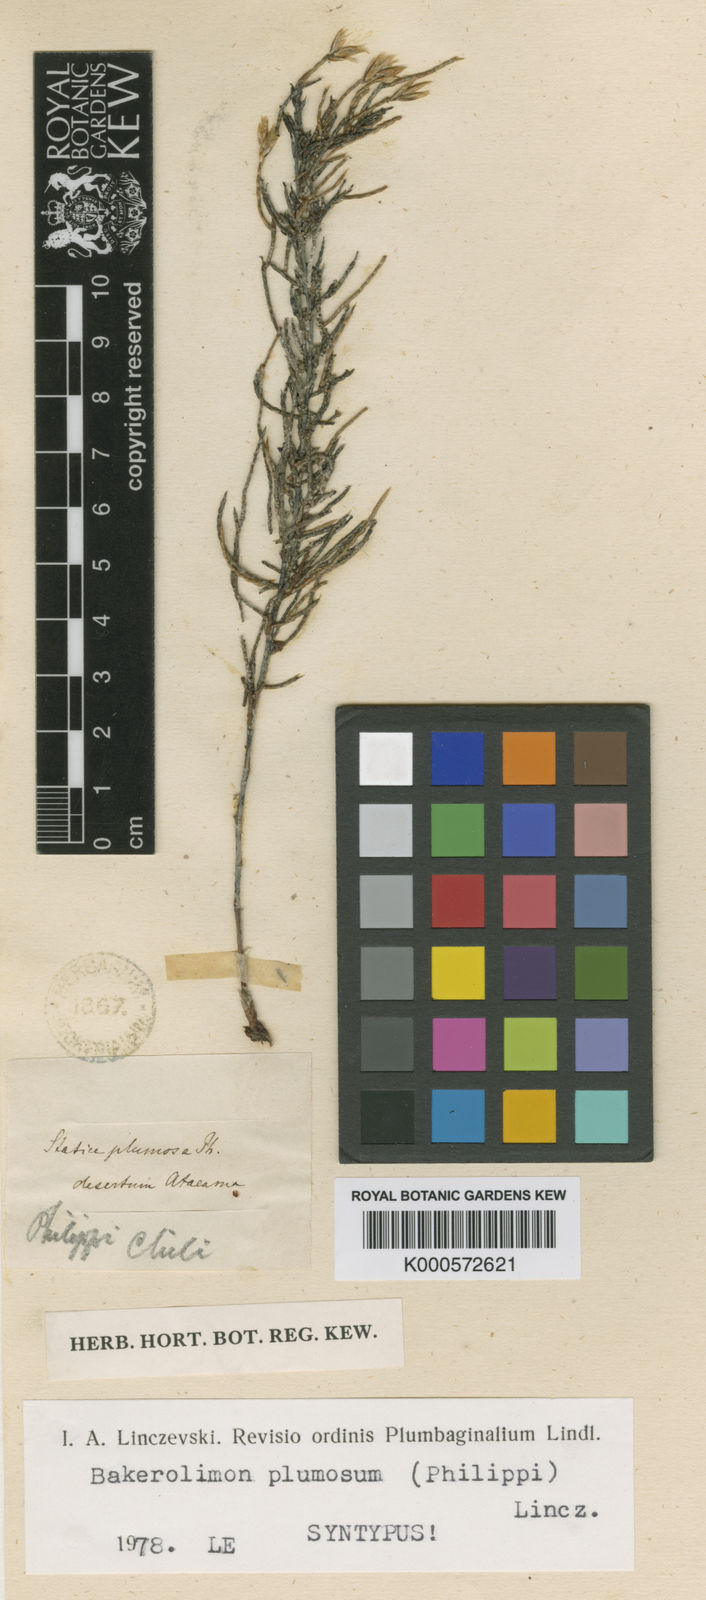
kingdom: Plantae
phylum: Tracheophyta
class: Magnoliopsida
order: Caryophyllales
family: Plumbaginaceae
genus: Limonium
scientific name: Limonium
